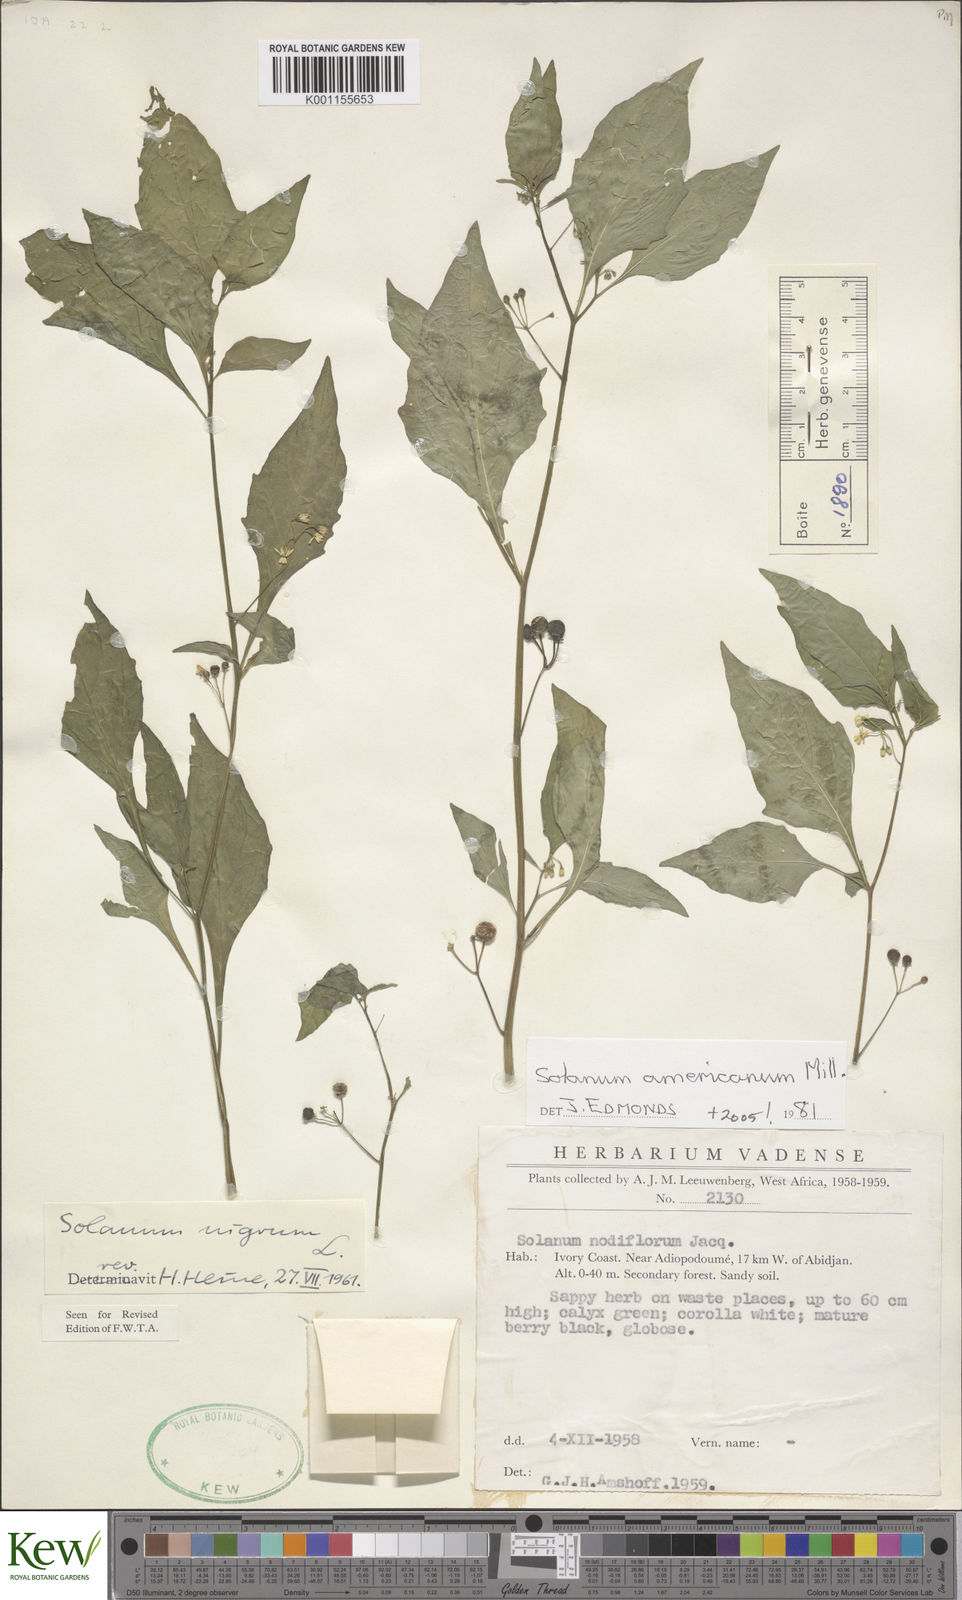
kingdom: Plantae
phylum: Tracheophyta
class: Magnoliopsida
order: Solanales
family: Solanaceae
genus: Solanum
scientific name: Solanum americanum
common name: American black nightshade
